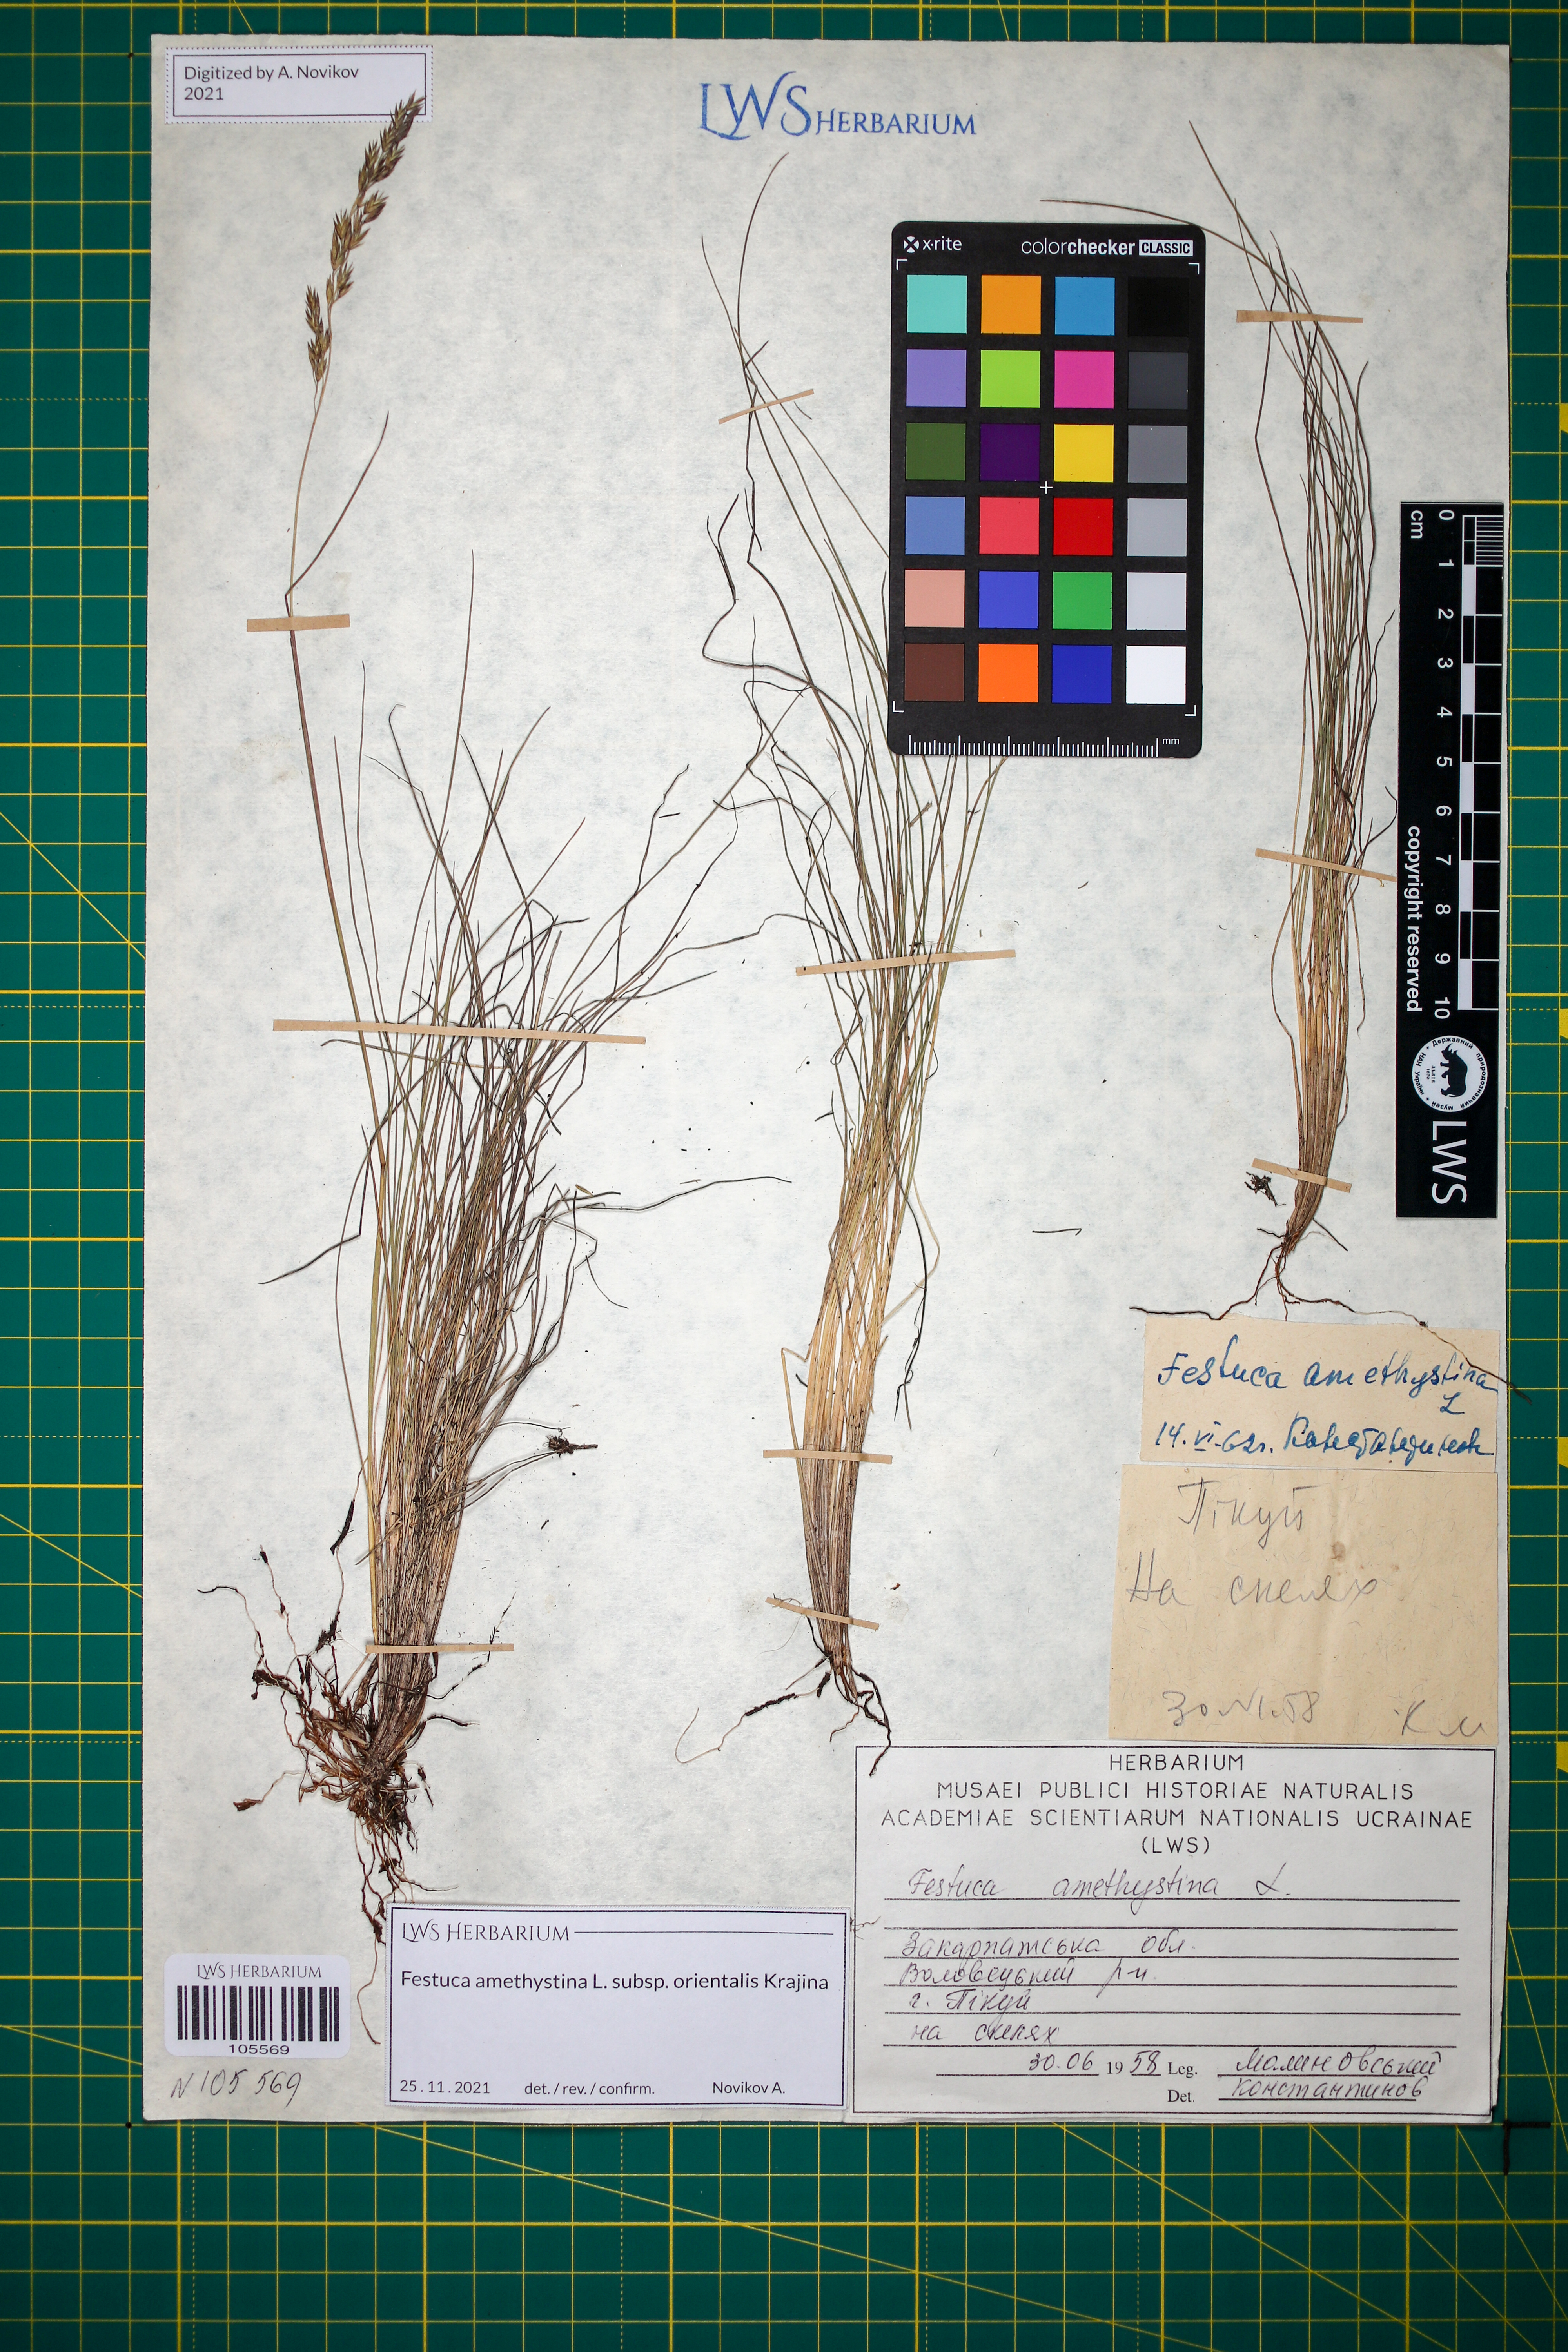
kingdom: Plantae
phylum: Tracheophyta
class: Liliopsida
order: Poales
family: Poaceae
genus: Festuca
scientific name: Festuca amethystina
